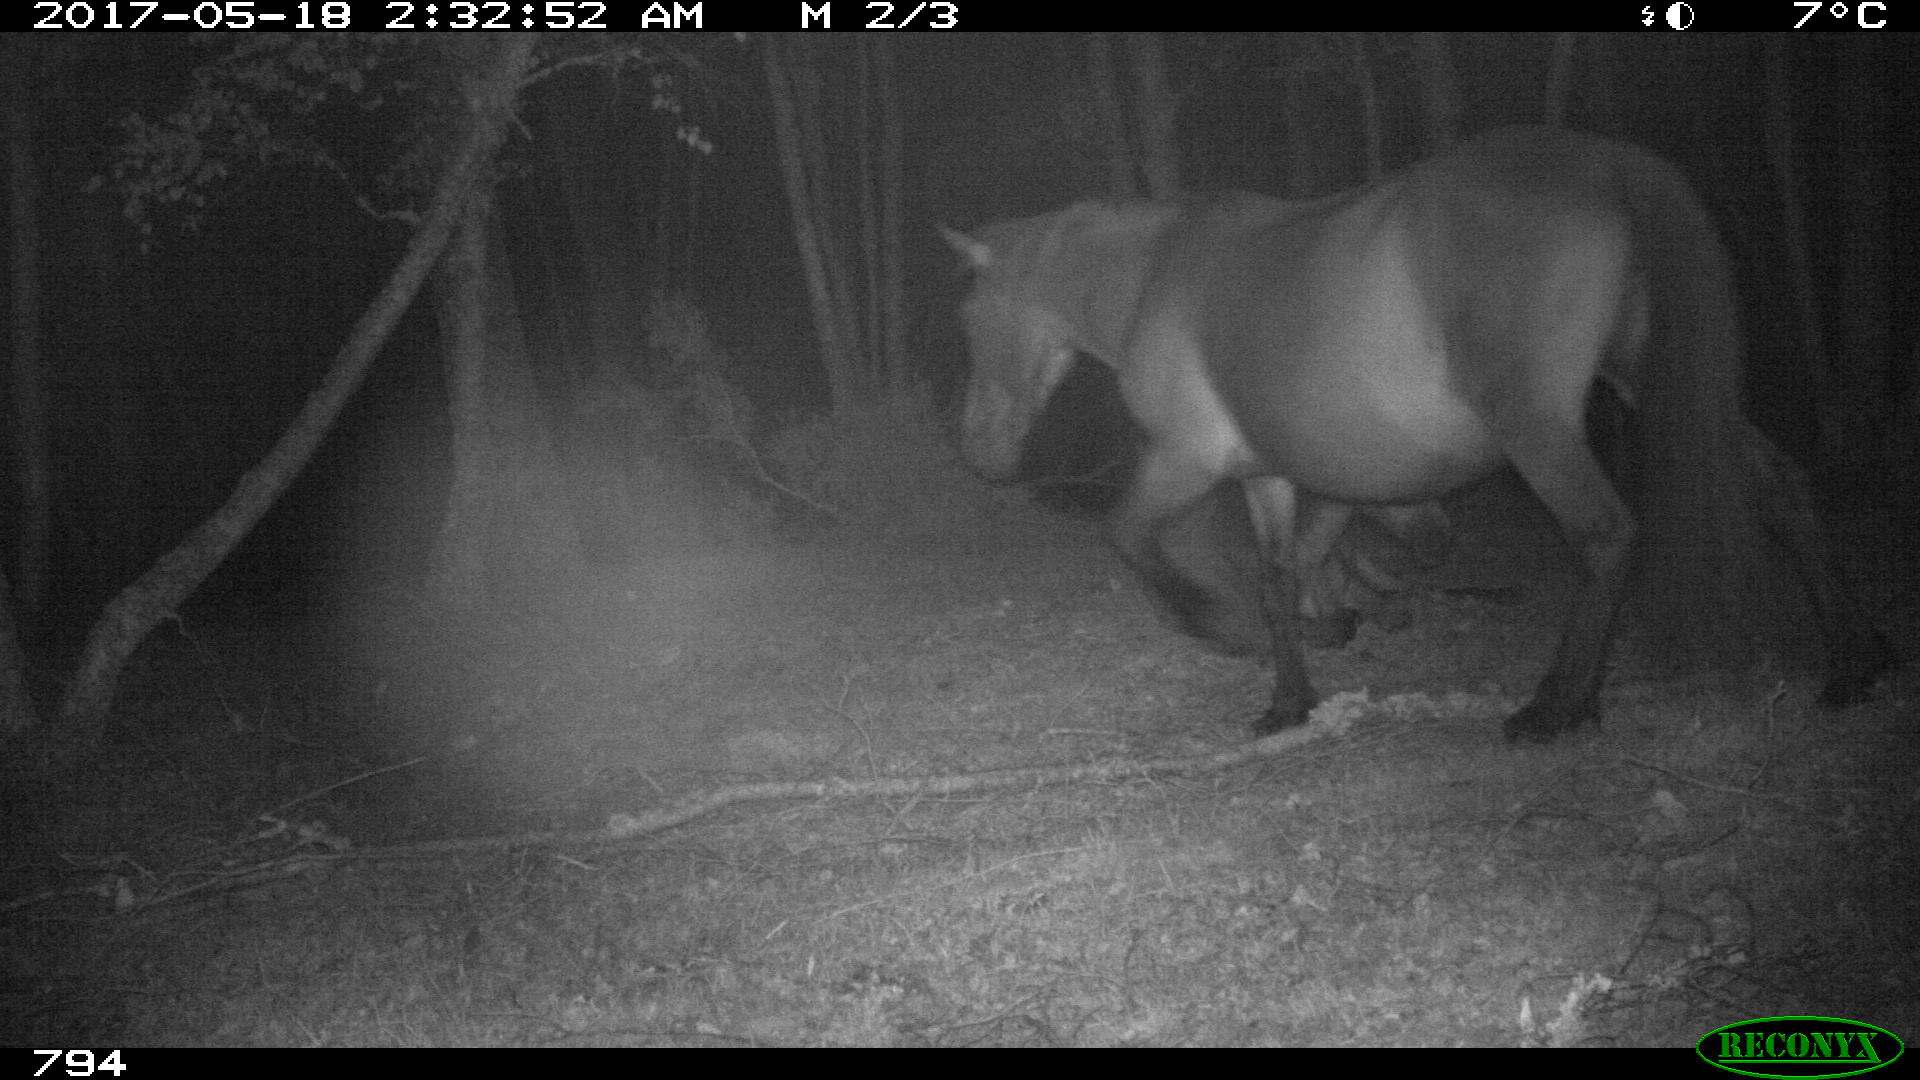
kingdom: Animalia
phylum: Chordata
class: Mammalia
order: Perissodactyla
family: Equidae
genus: Equus
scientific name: Equus caballus
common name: Horse
